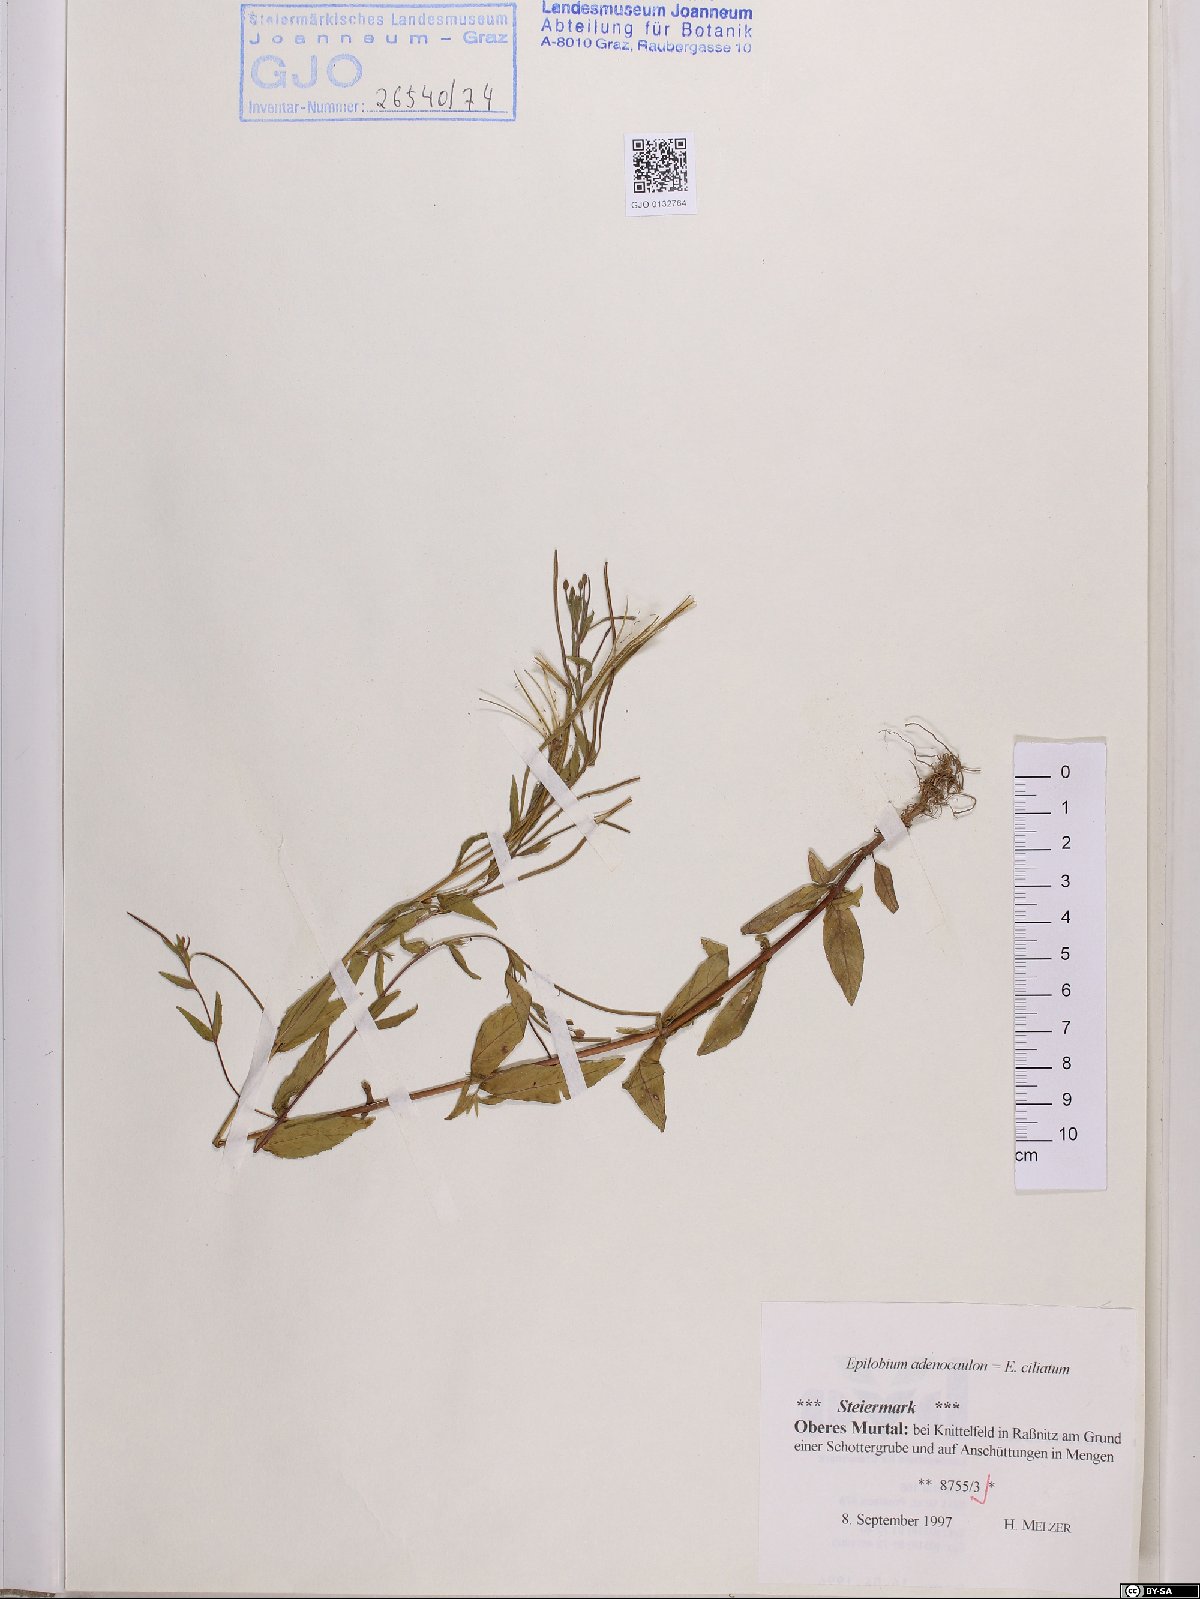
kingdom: Plantae
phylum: Tracheophyta
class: Magnoliopsida
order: Myrtales
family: Onagraceae
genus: Epilobium
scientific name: Epilobium ciliatum
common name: American willowherb
